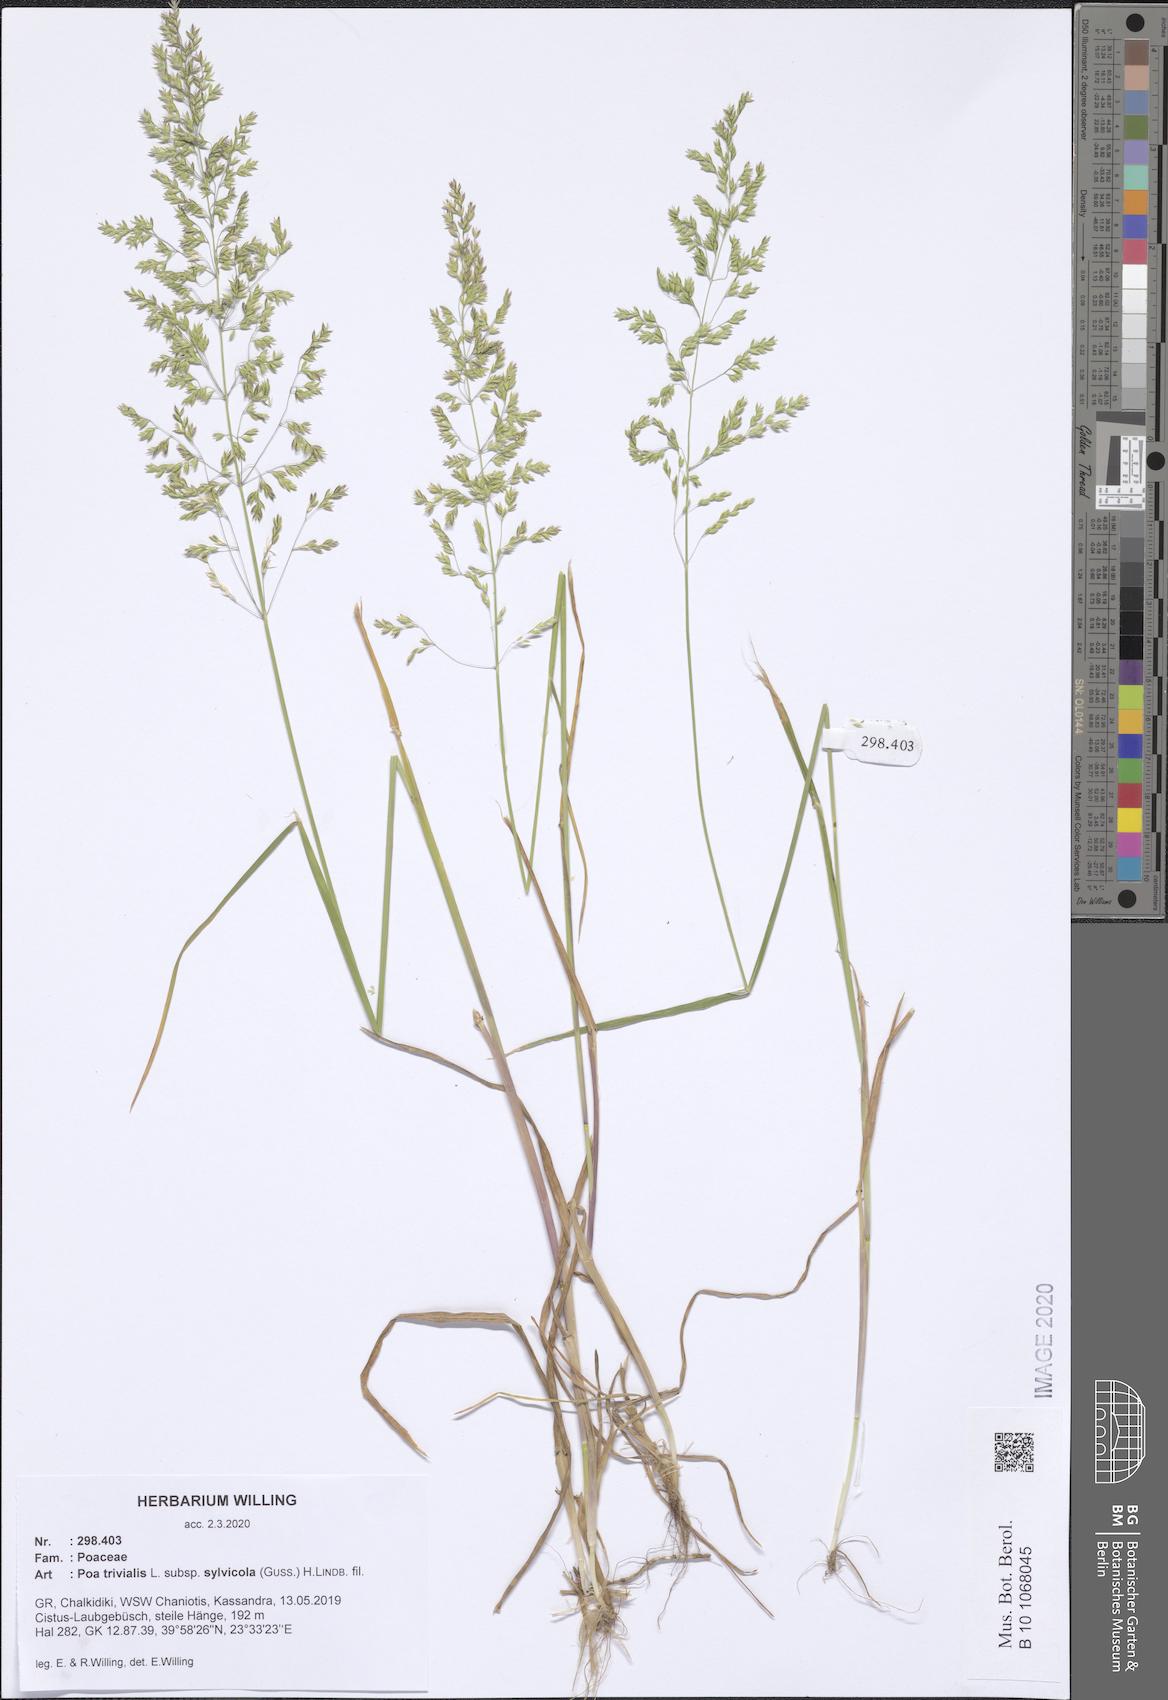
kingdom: Plantae
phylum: Tracheophyta
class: Liliopsida
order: Poales
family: Poaceae
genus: Poa
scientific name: Poa trivialis
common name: Rough bluegrass
